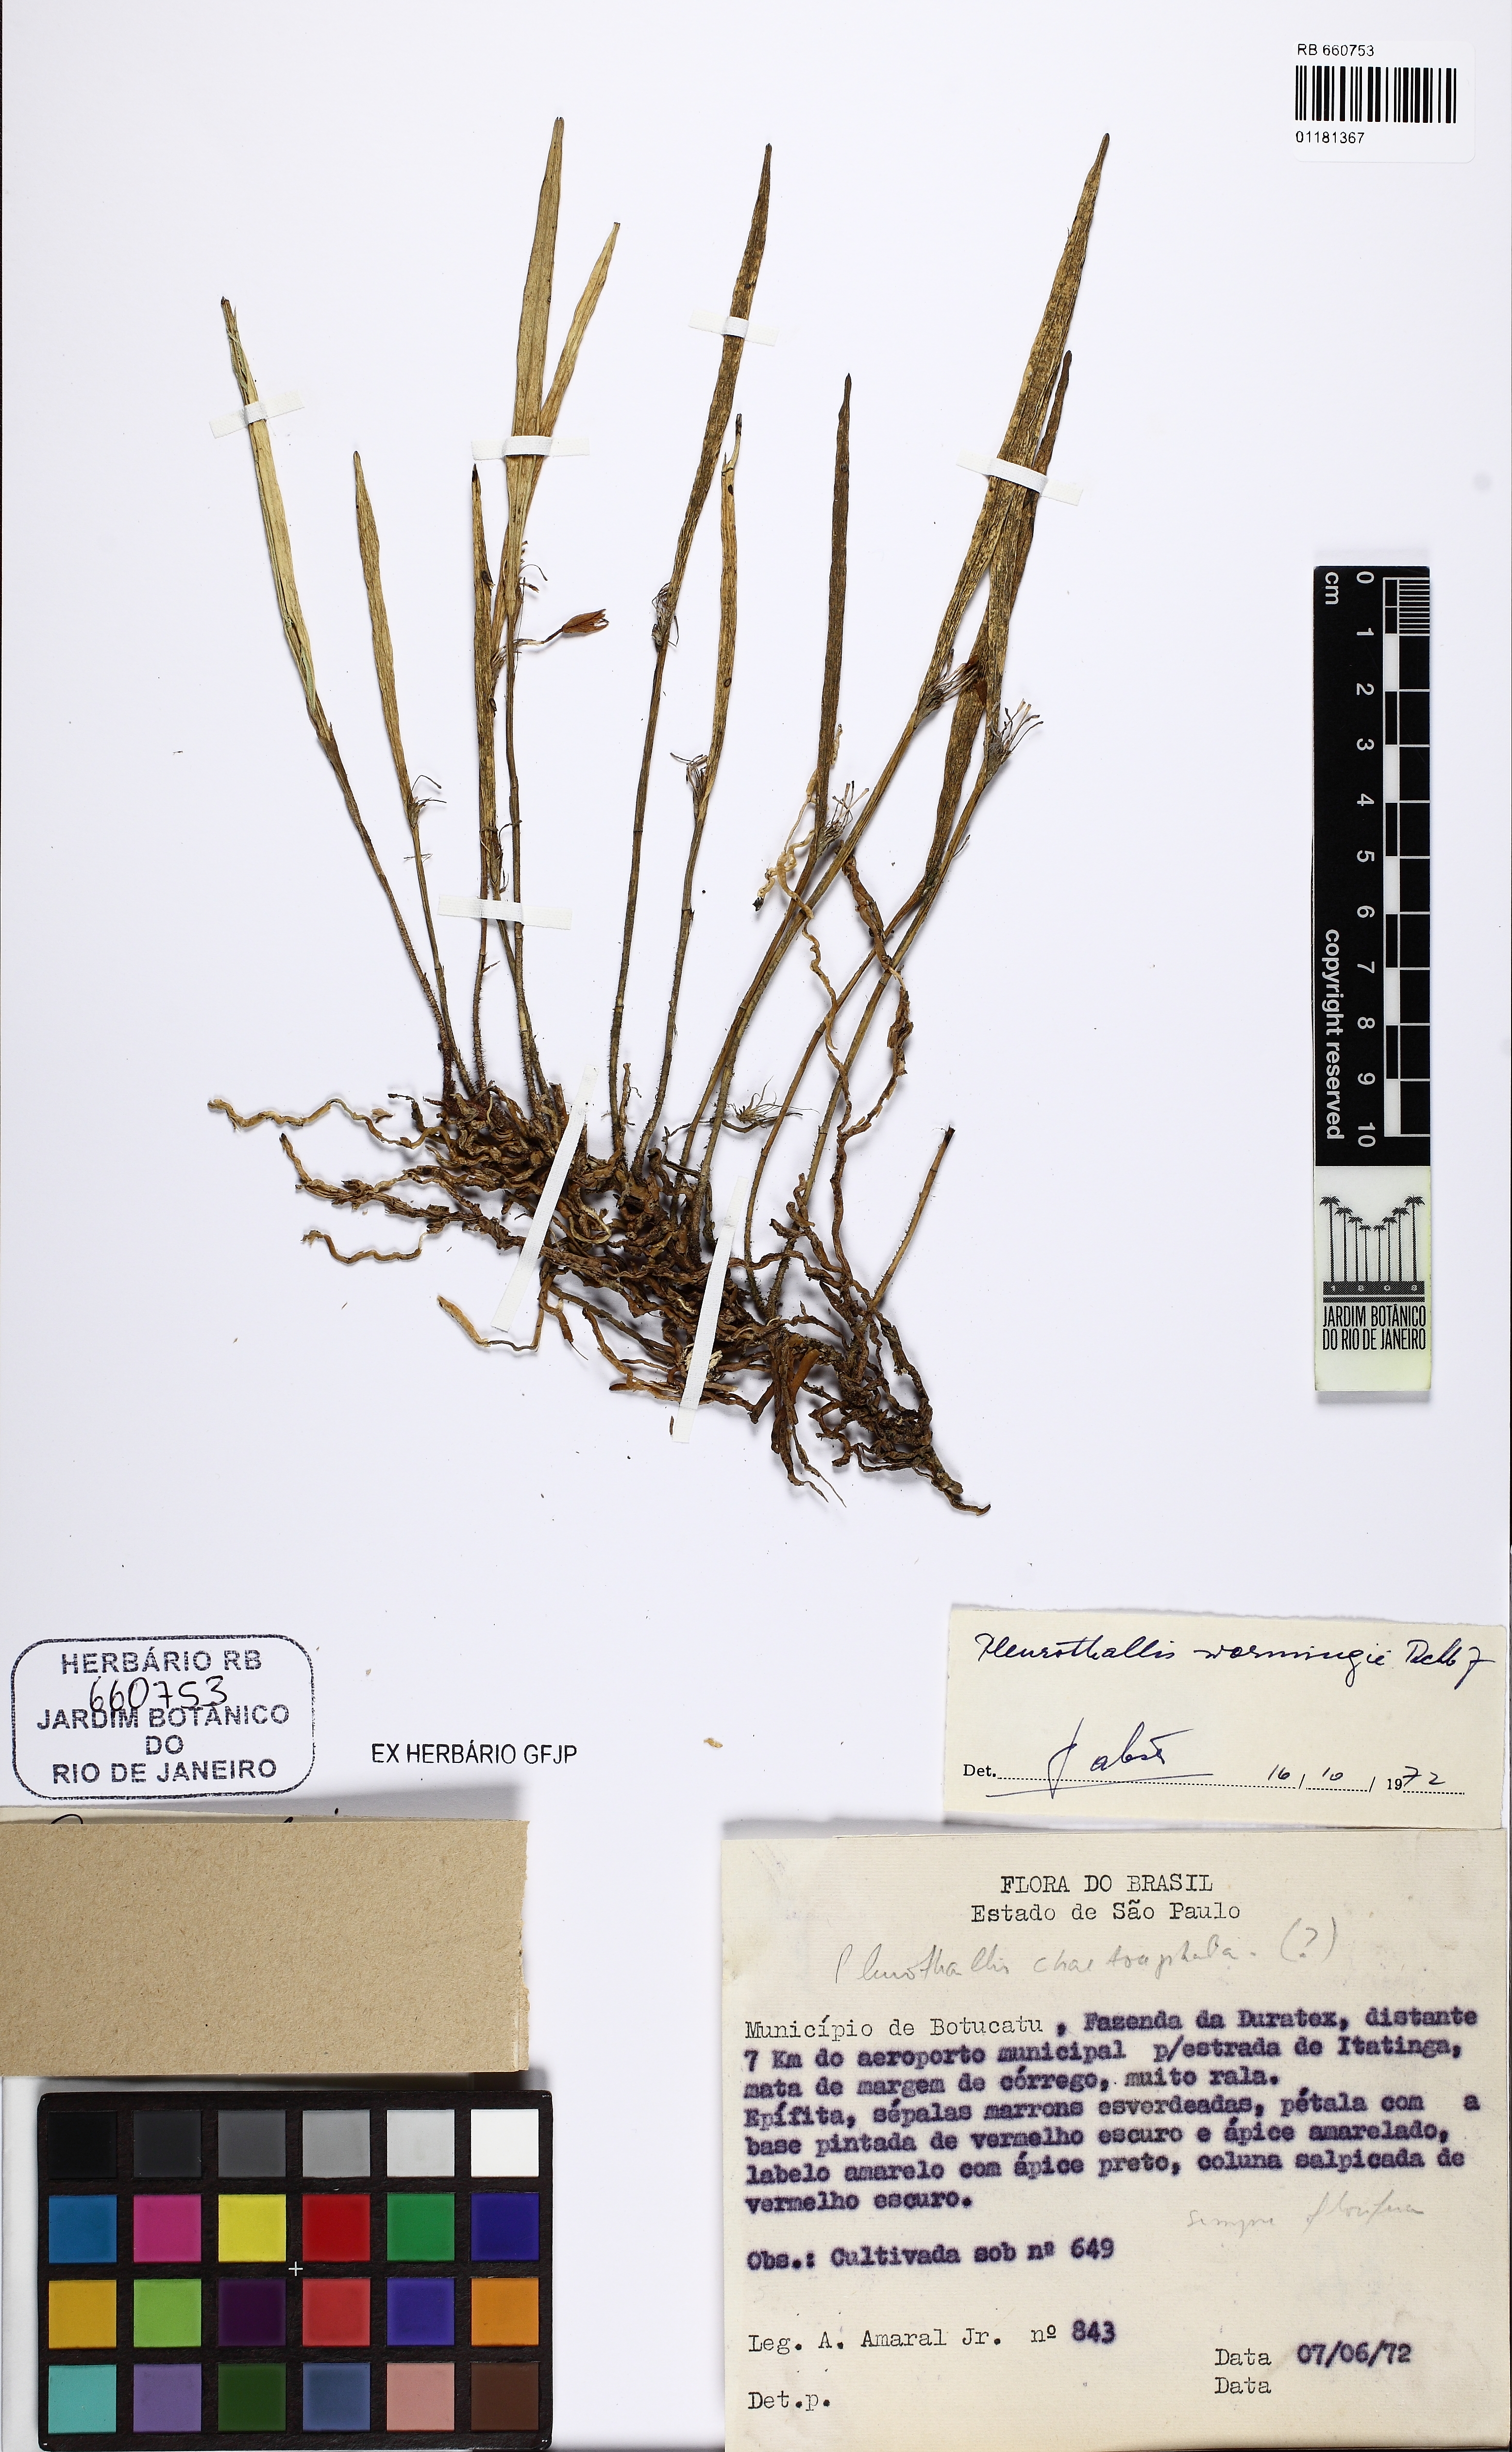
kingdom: Plantae
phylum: Tracheophyta
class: Liliopsida
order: Asparagales
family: Orchidaceae
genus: Myoxanthus
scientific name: Myoxanthus lonchophyllus
